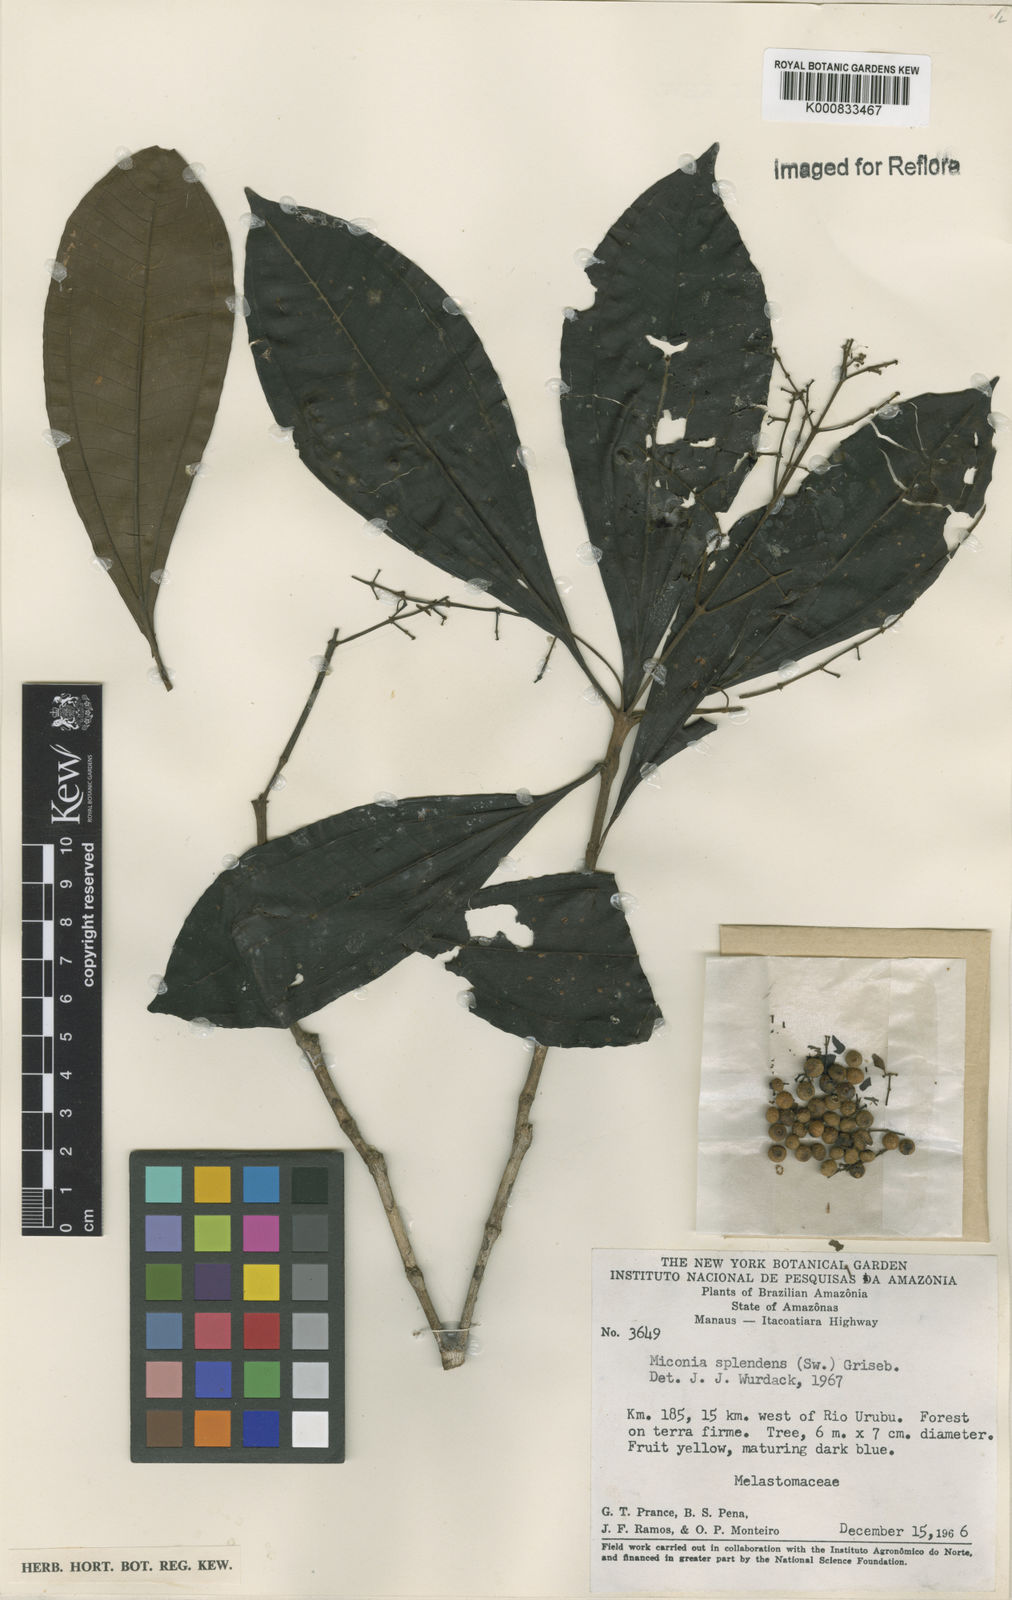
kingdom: Plantae
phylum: Tracheophyta
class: Magnoliopsida
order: Myrtales
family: Melastomataceae
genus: Miconia
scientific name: Miconia splendens
